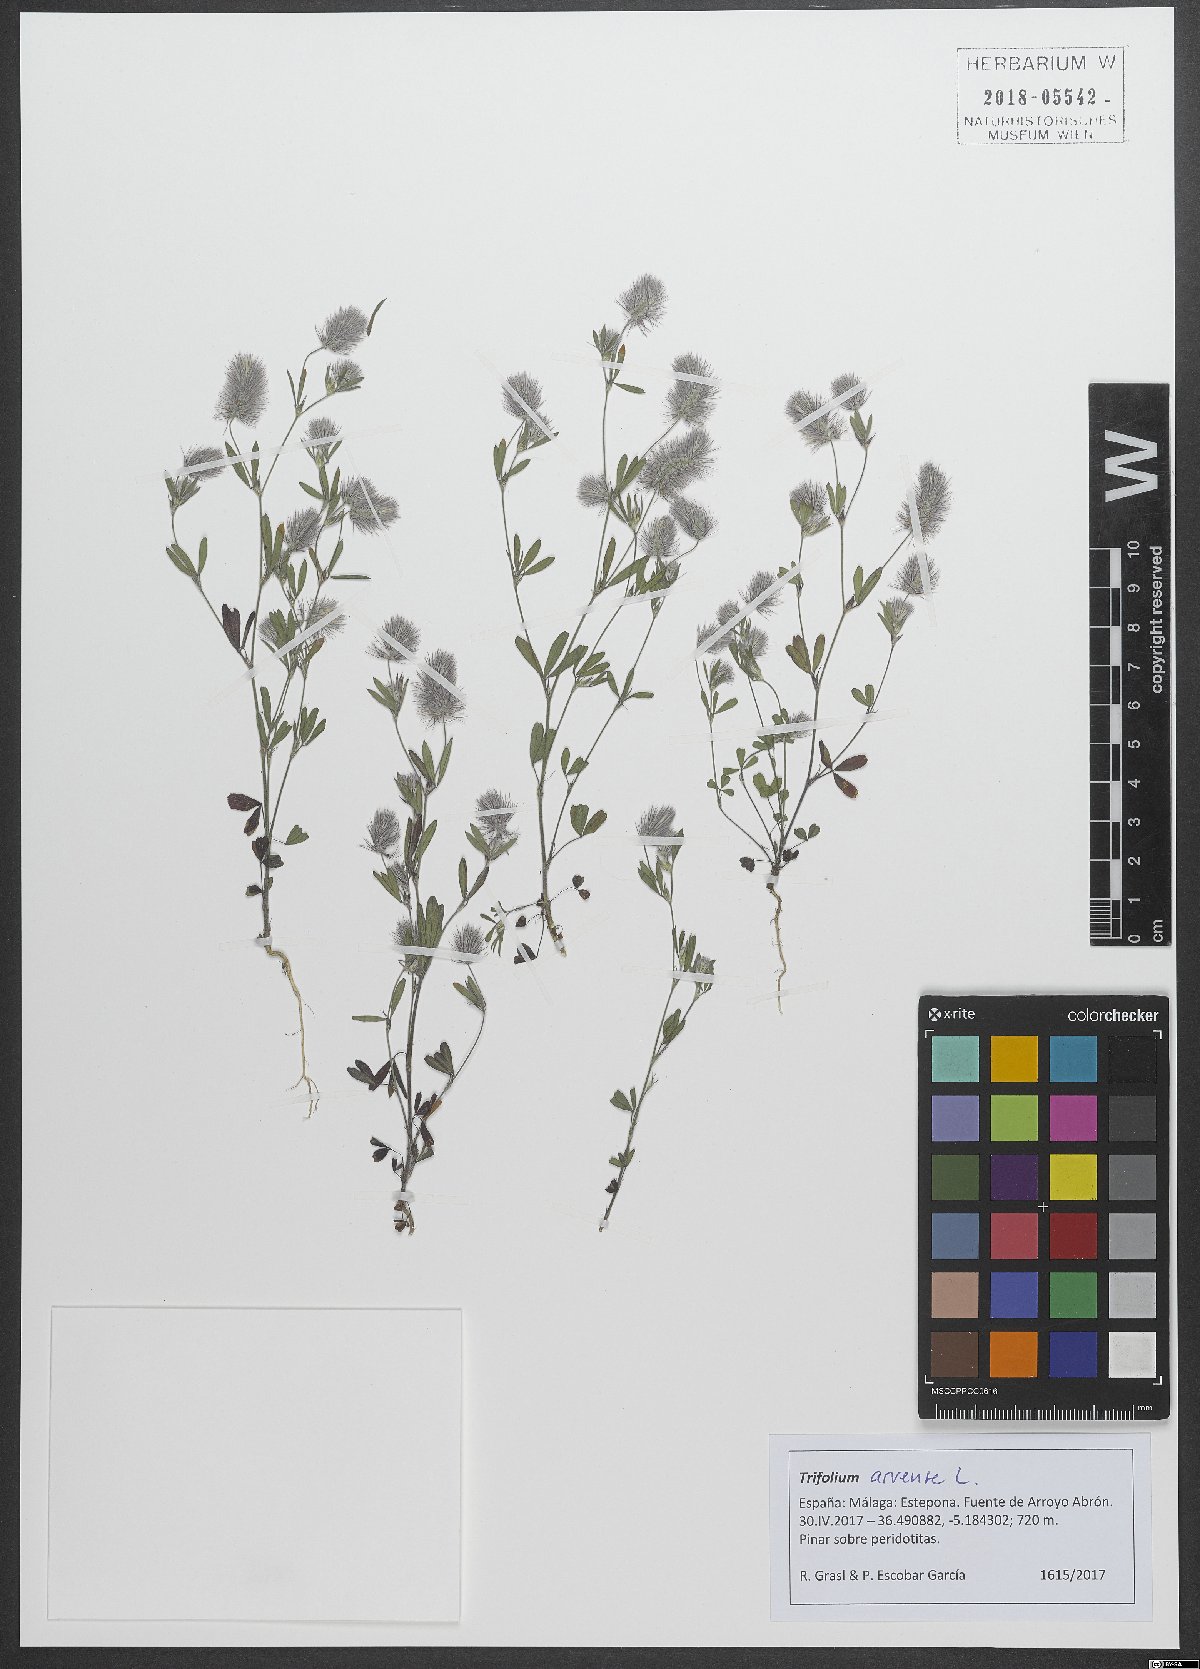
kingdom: Plantae
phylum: Tracheophyta
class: Magnoliopsida
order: Fabales
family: Fabaceae
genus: Trifolium
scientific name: Trifolium arvense
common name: Hare's-foot clover
